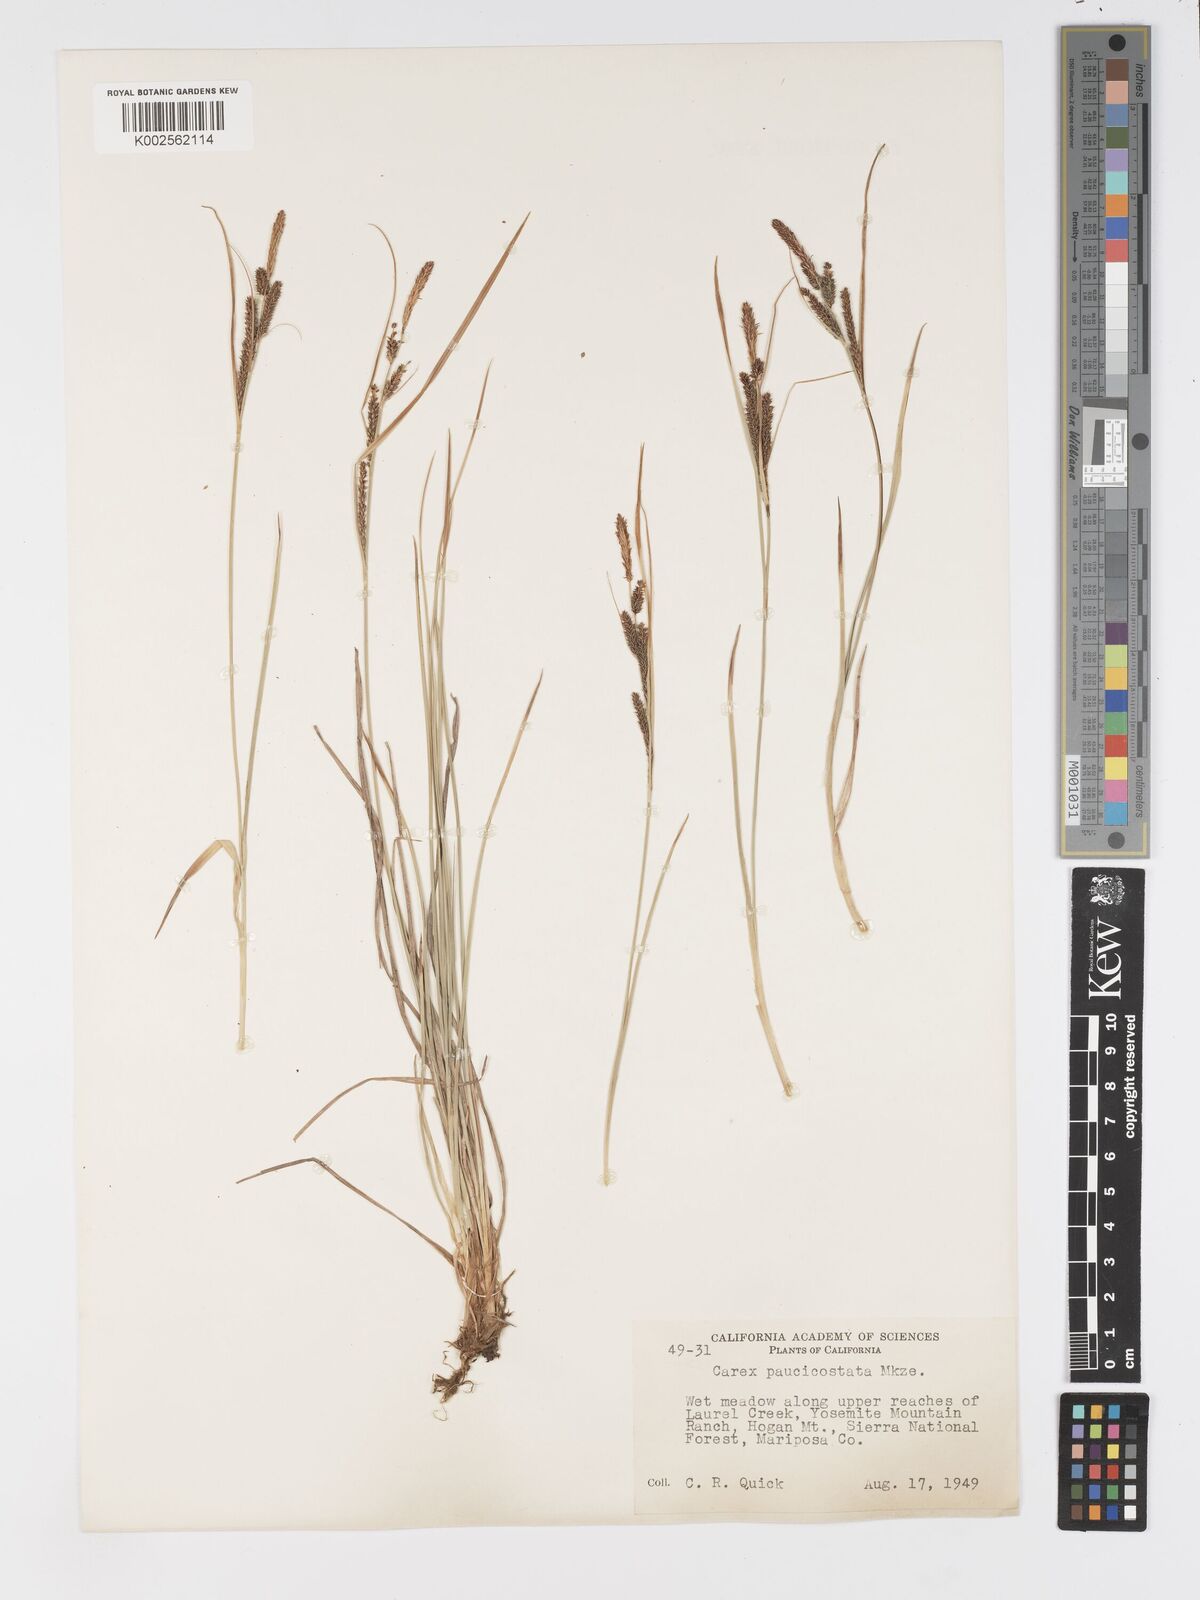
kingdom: Plantae
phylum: Tracheophyta
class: Liliopsida
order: Poales
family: Cyperaceae
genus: Carex
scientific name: Carex kelloggii
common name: Kellogg's sedge
